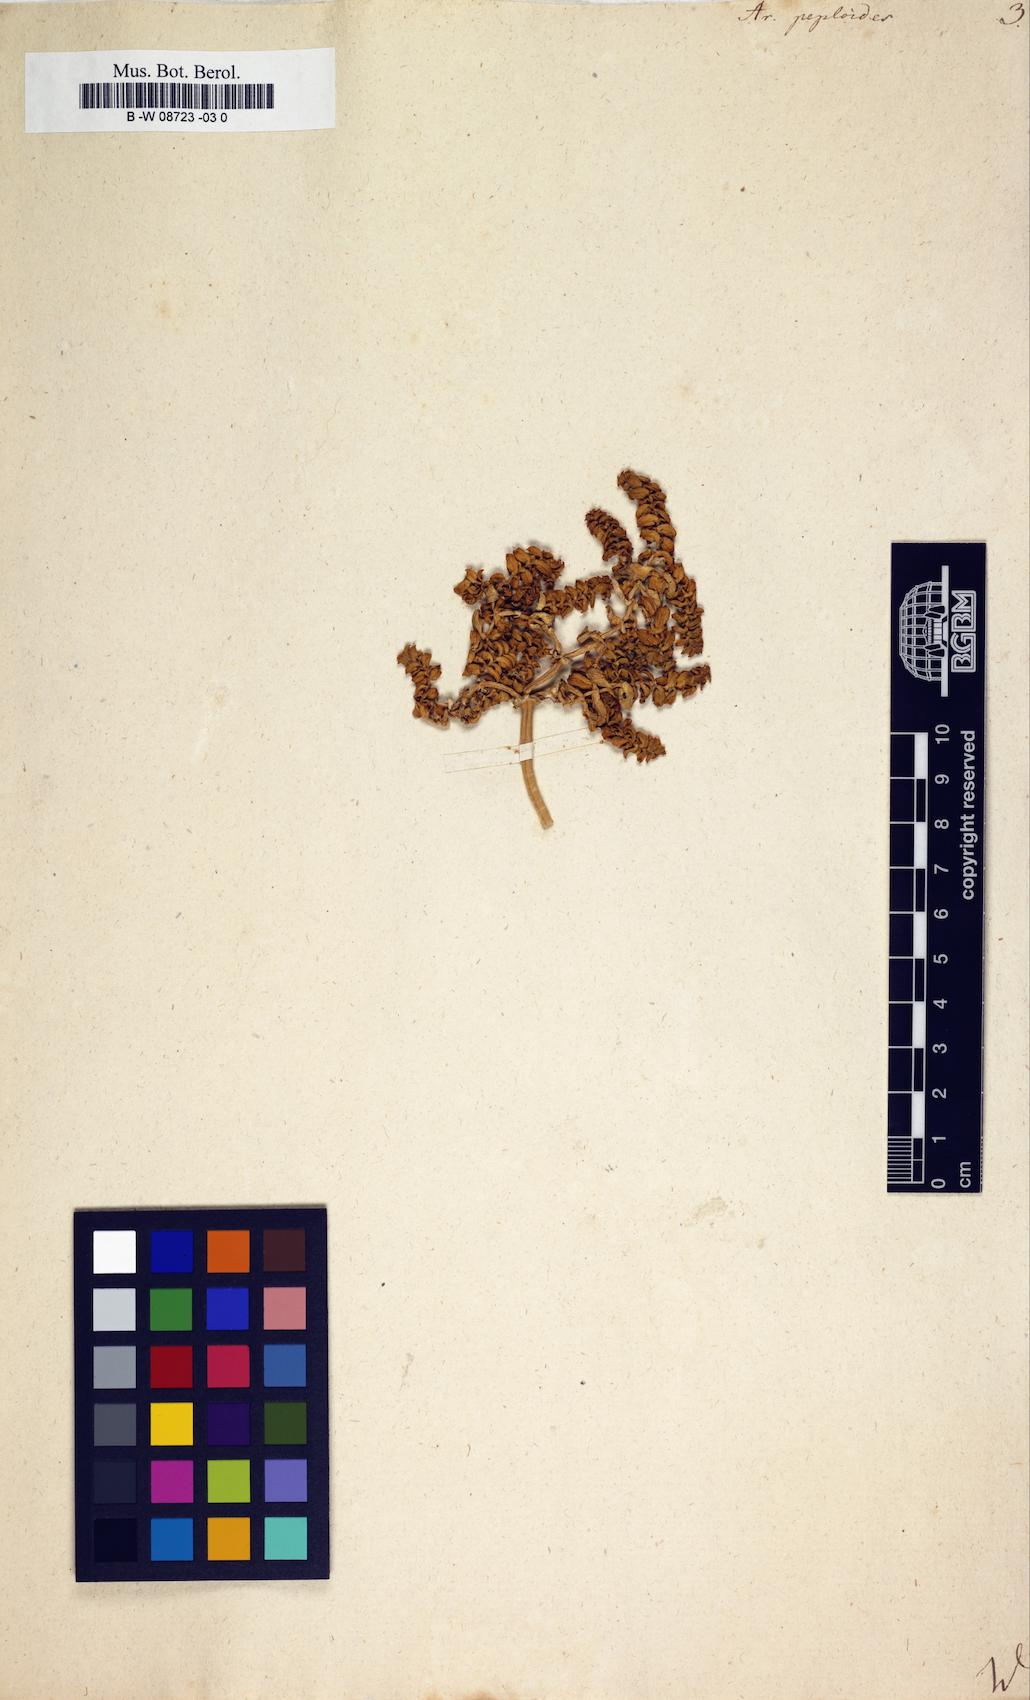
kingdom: Plantae
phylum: Tracheophyta
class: Magnoliopsida
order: Caryophyllales
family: Caryophyllaceae
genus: Honckenya
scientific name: Honckenya peploides
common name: Sea sandwort
